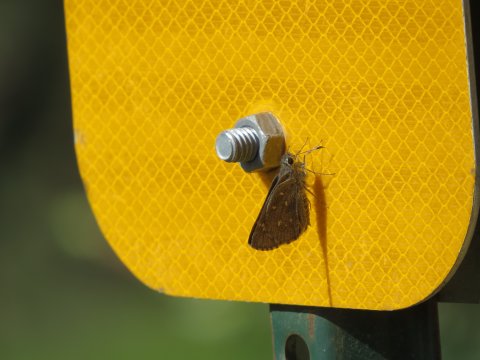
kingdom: Animalia
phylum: Arthropoda
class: Insecta
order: Lepidoptera
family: Hesperiidae
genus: Atrytonopsis
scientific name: Atrytonopsis ovinia
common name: Sheep Skipper
